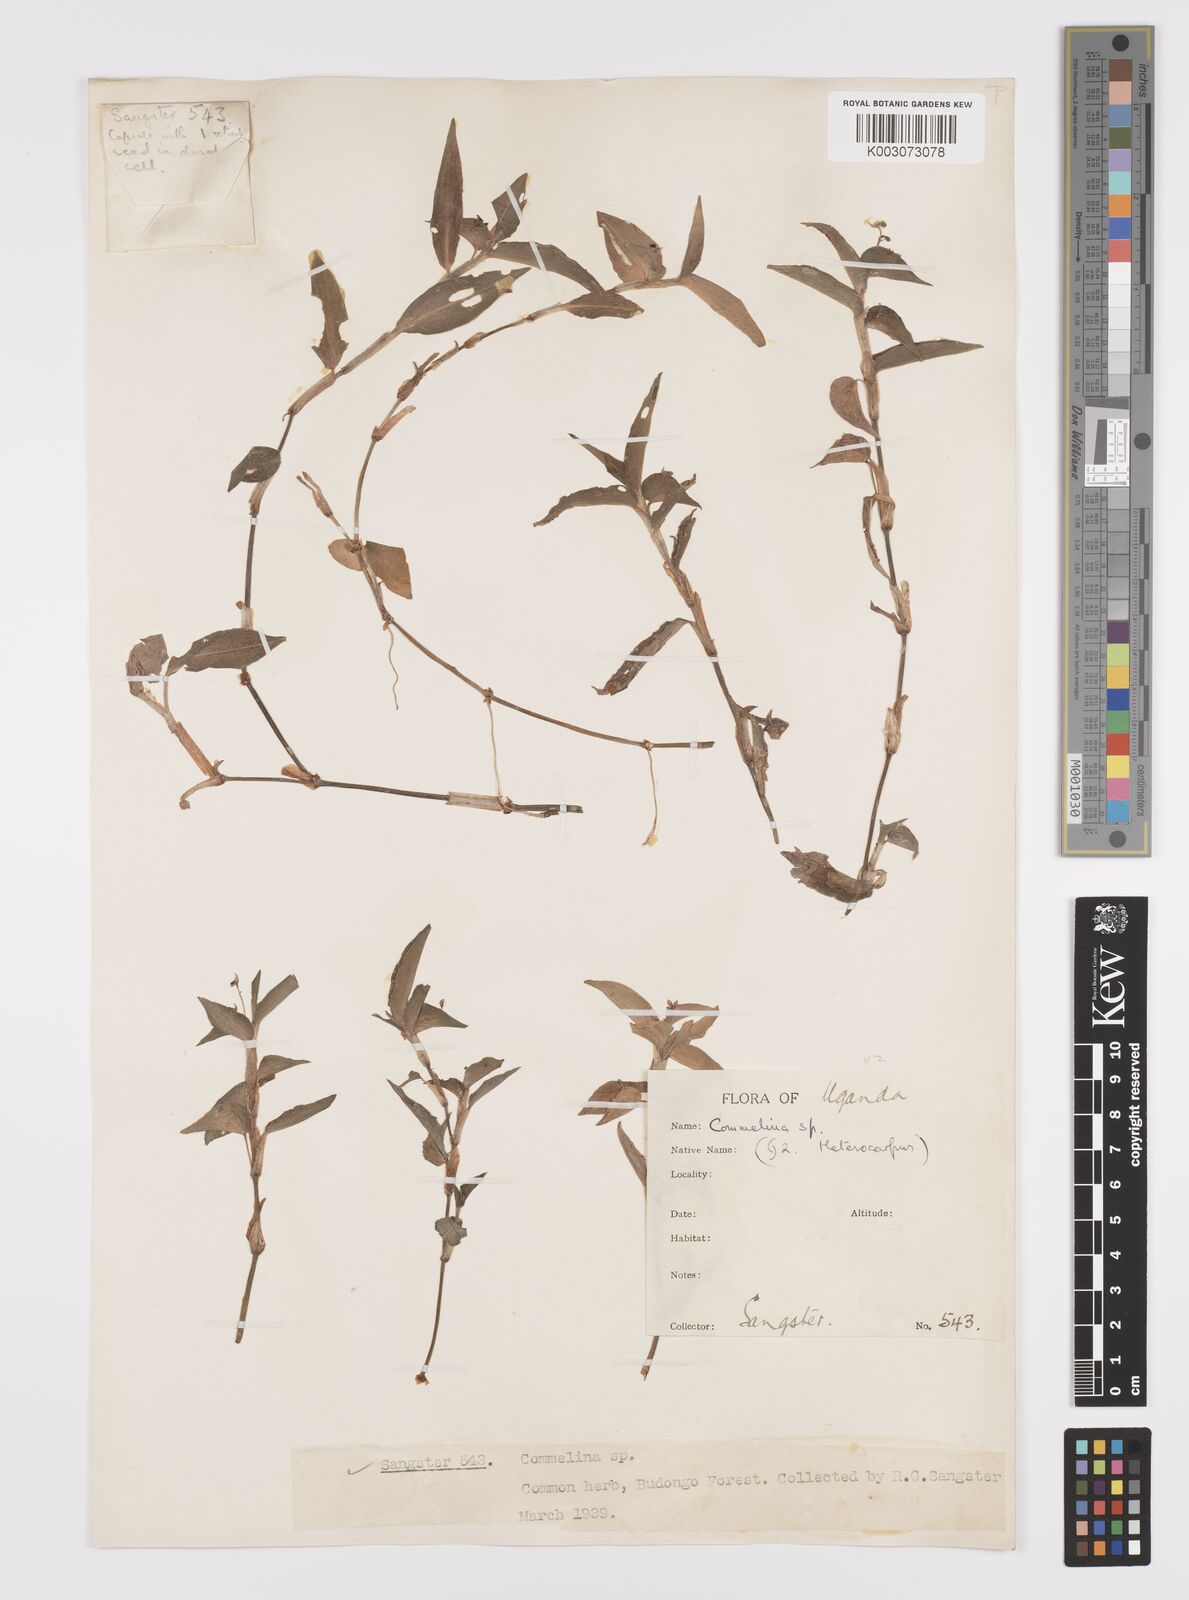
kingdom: Plantae
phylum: Tracheophyta
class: Liliopsida
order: Commelinales
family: Commelinaceae
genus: Commelina
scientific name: Commelina diffusa
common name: Climbing dayflower
